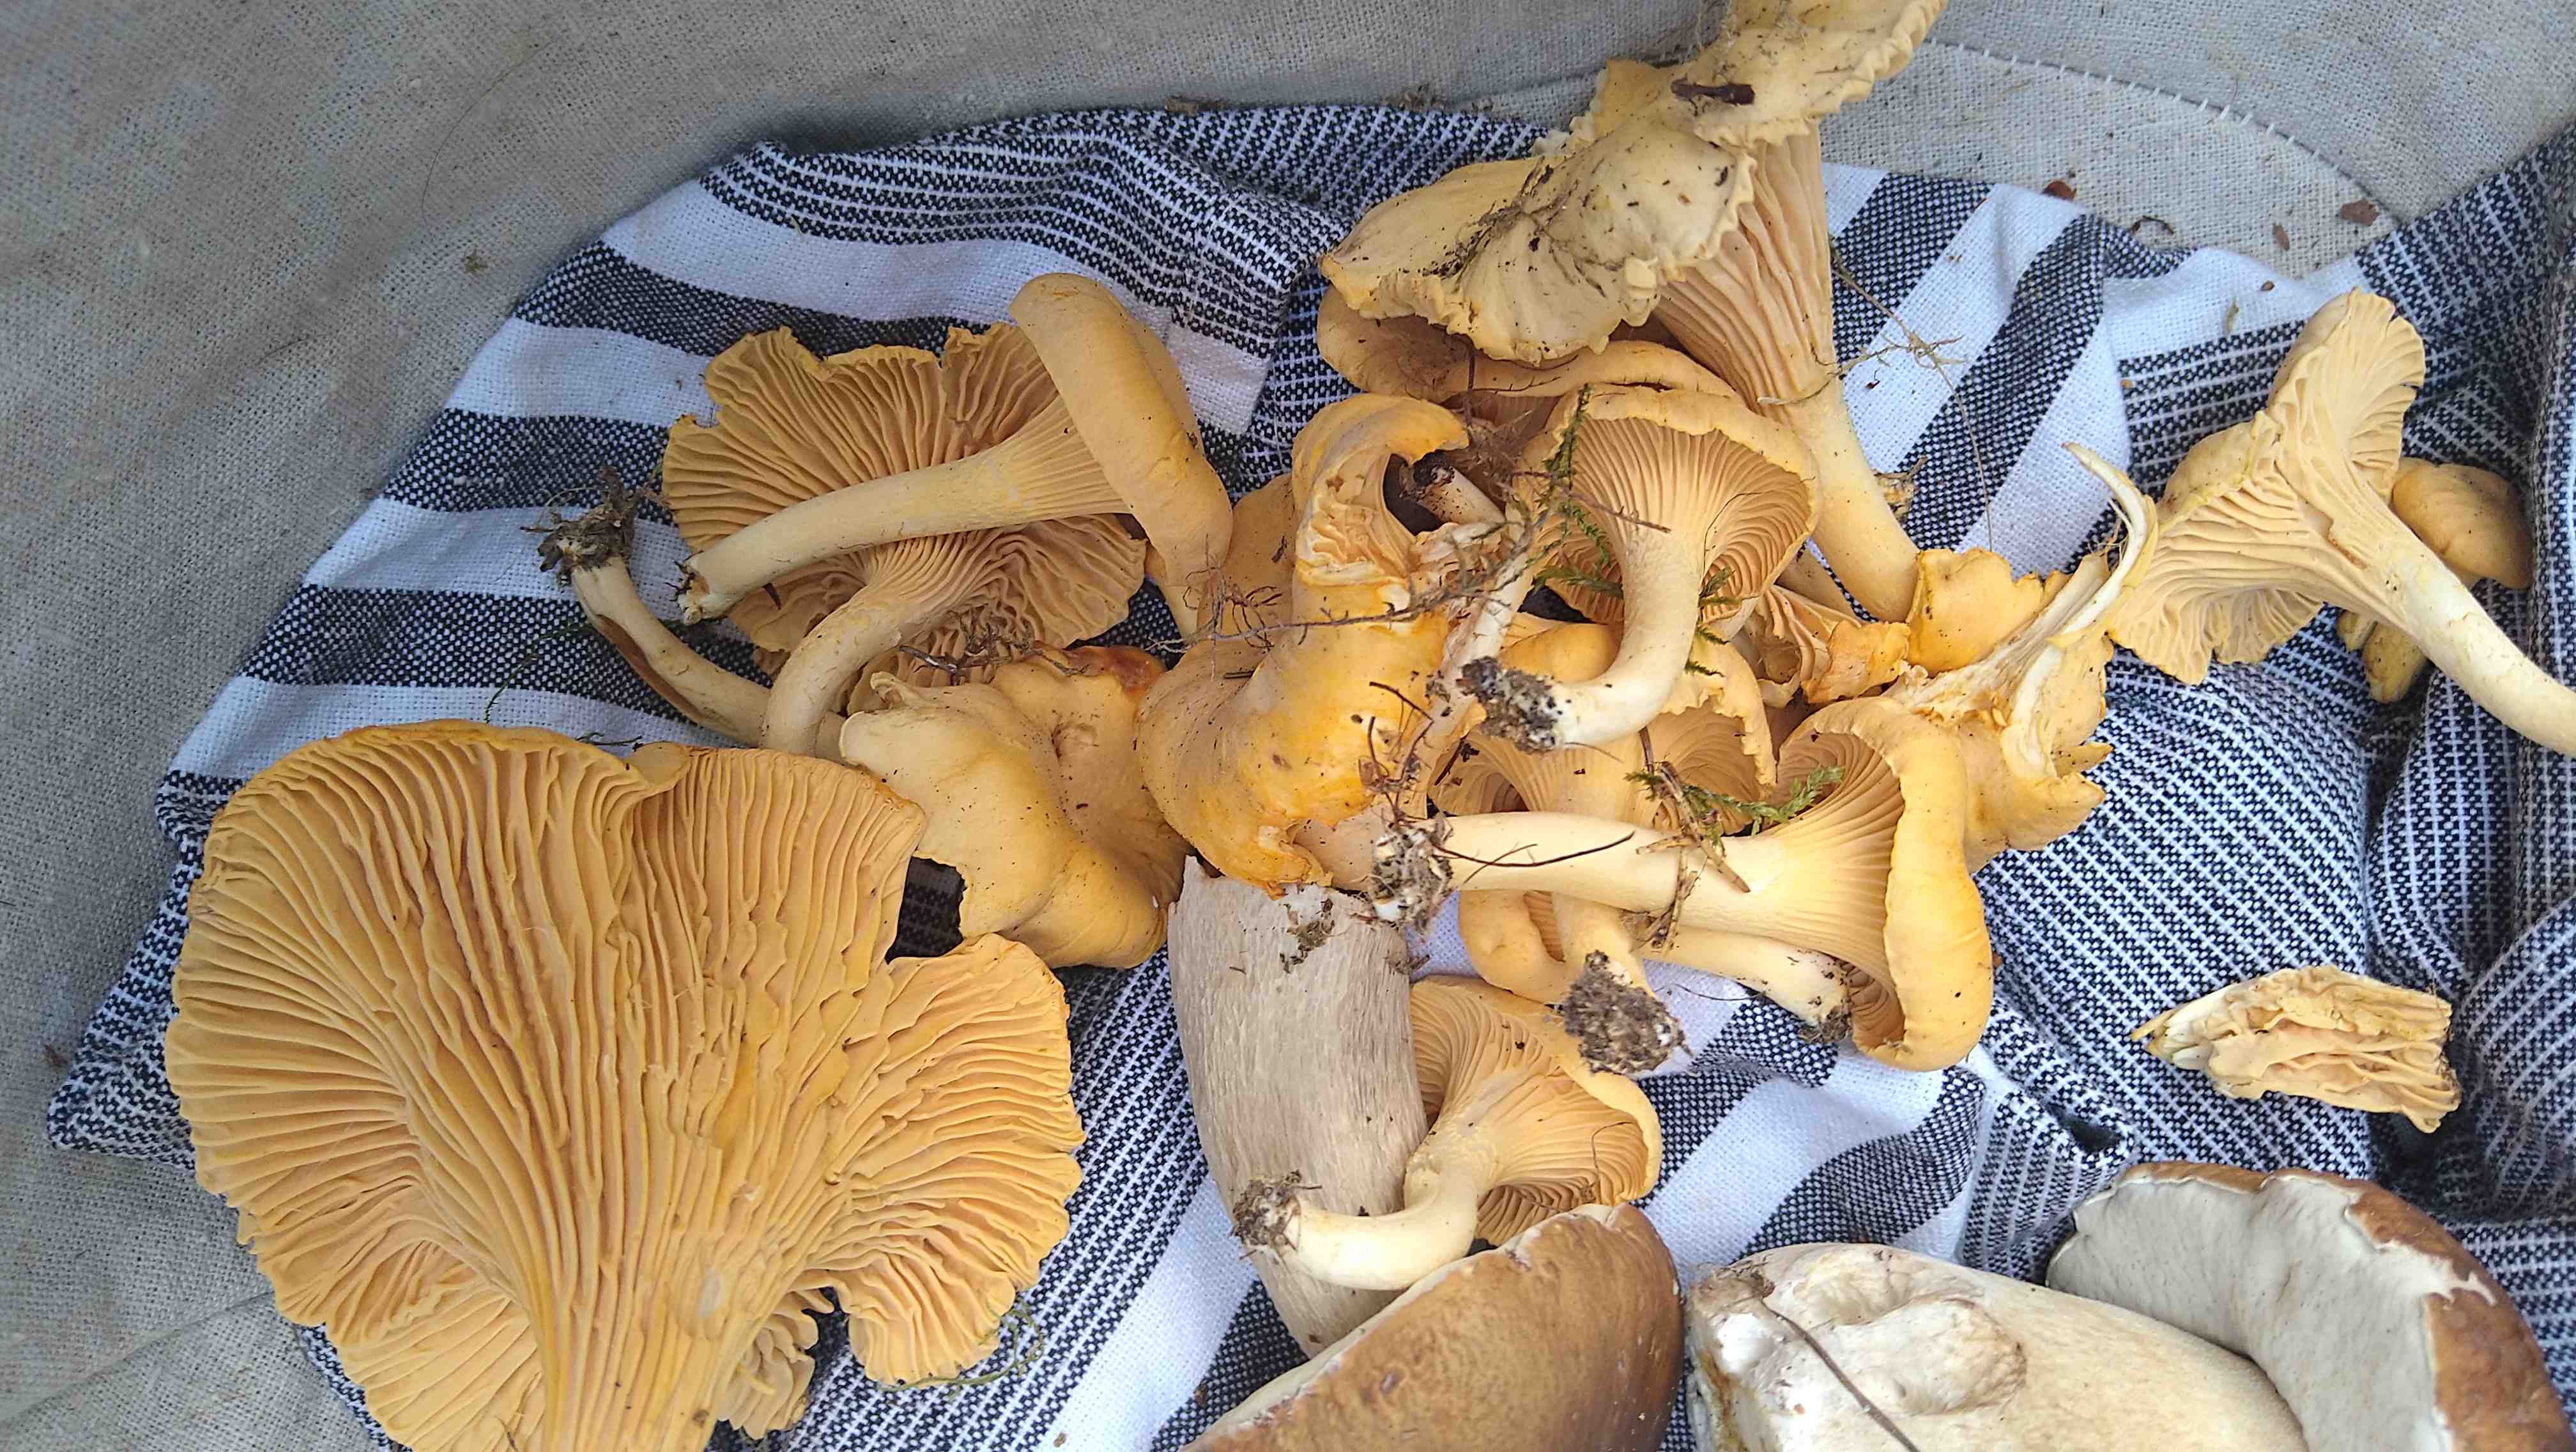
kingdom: Fungi
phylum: Basidiomycota
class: Agaricomycetes
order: Cantharellales
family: Hydnaceae
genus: Cantharellus
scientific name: Cantharellus cibarius
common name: almindelig kantarel
